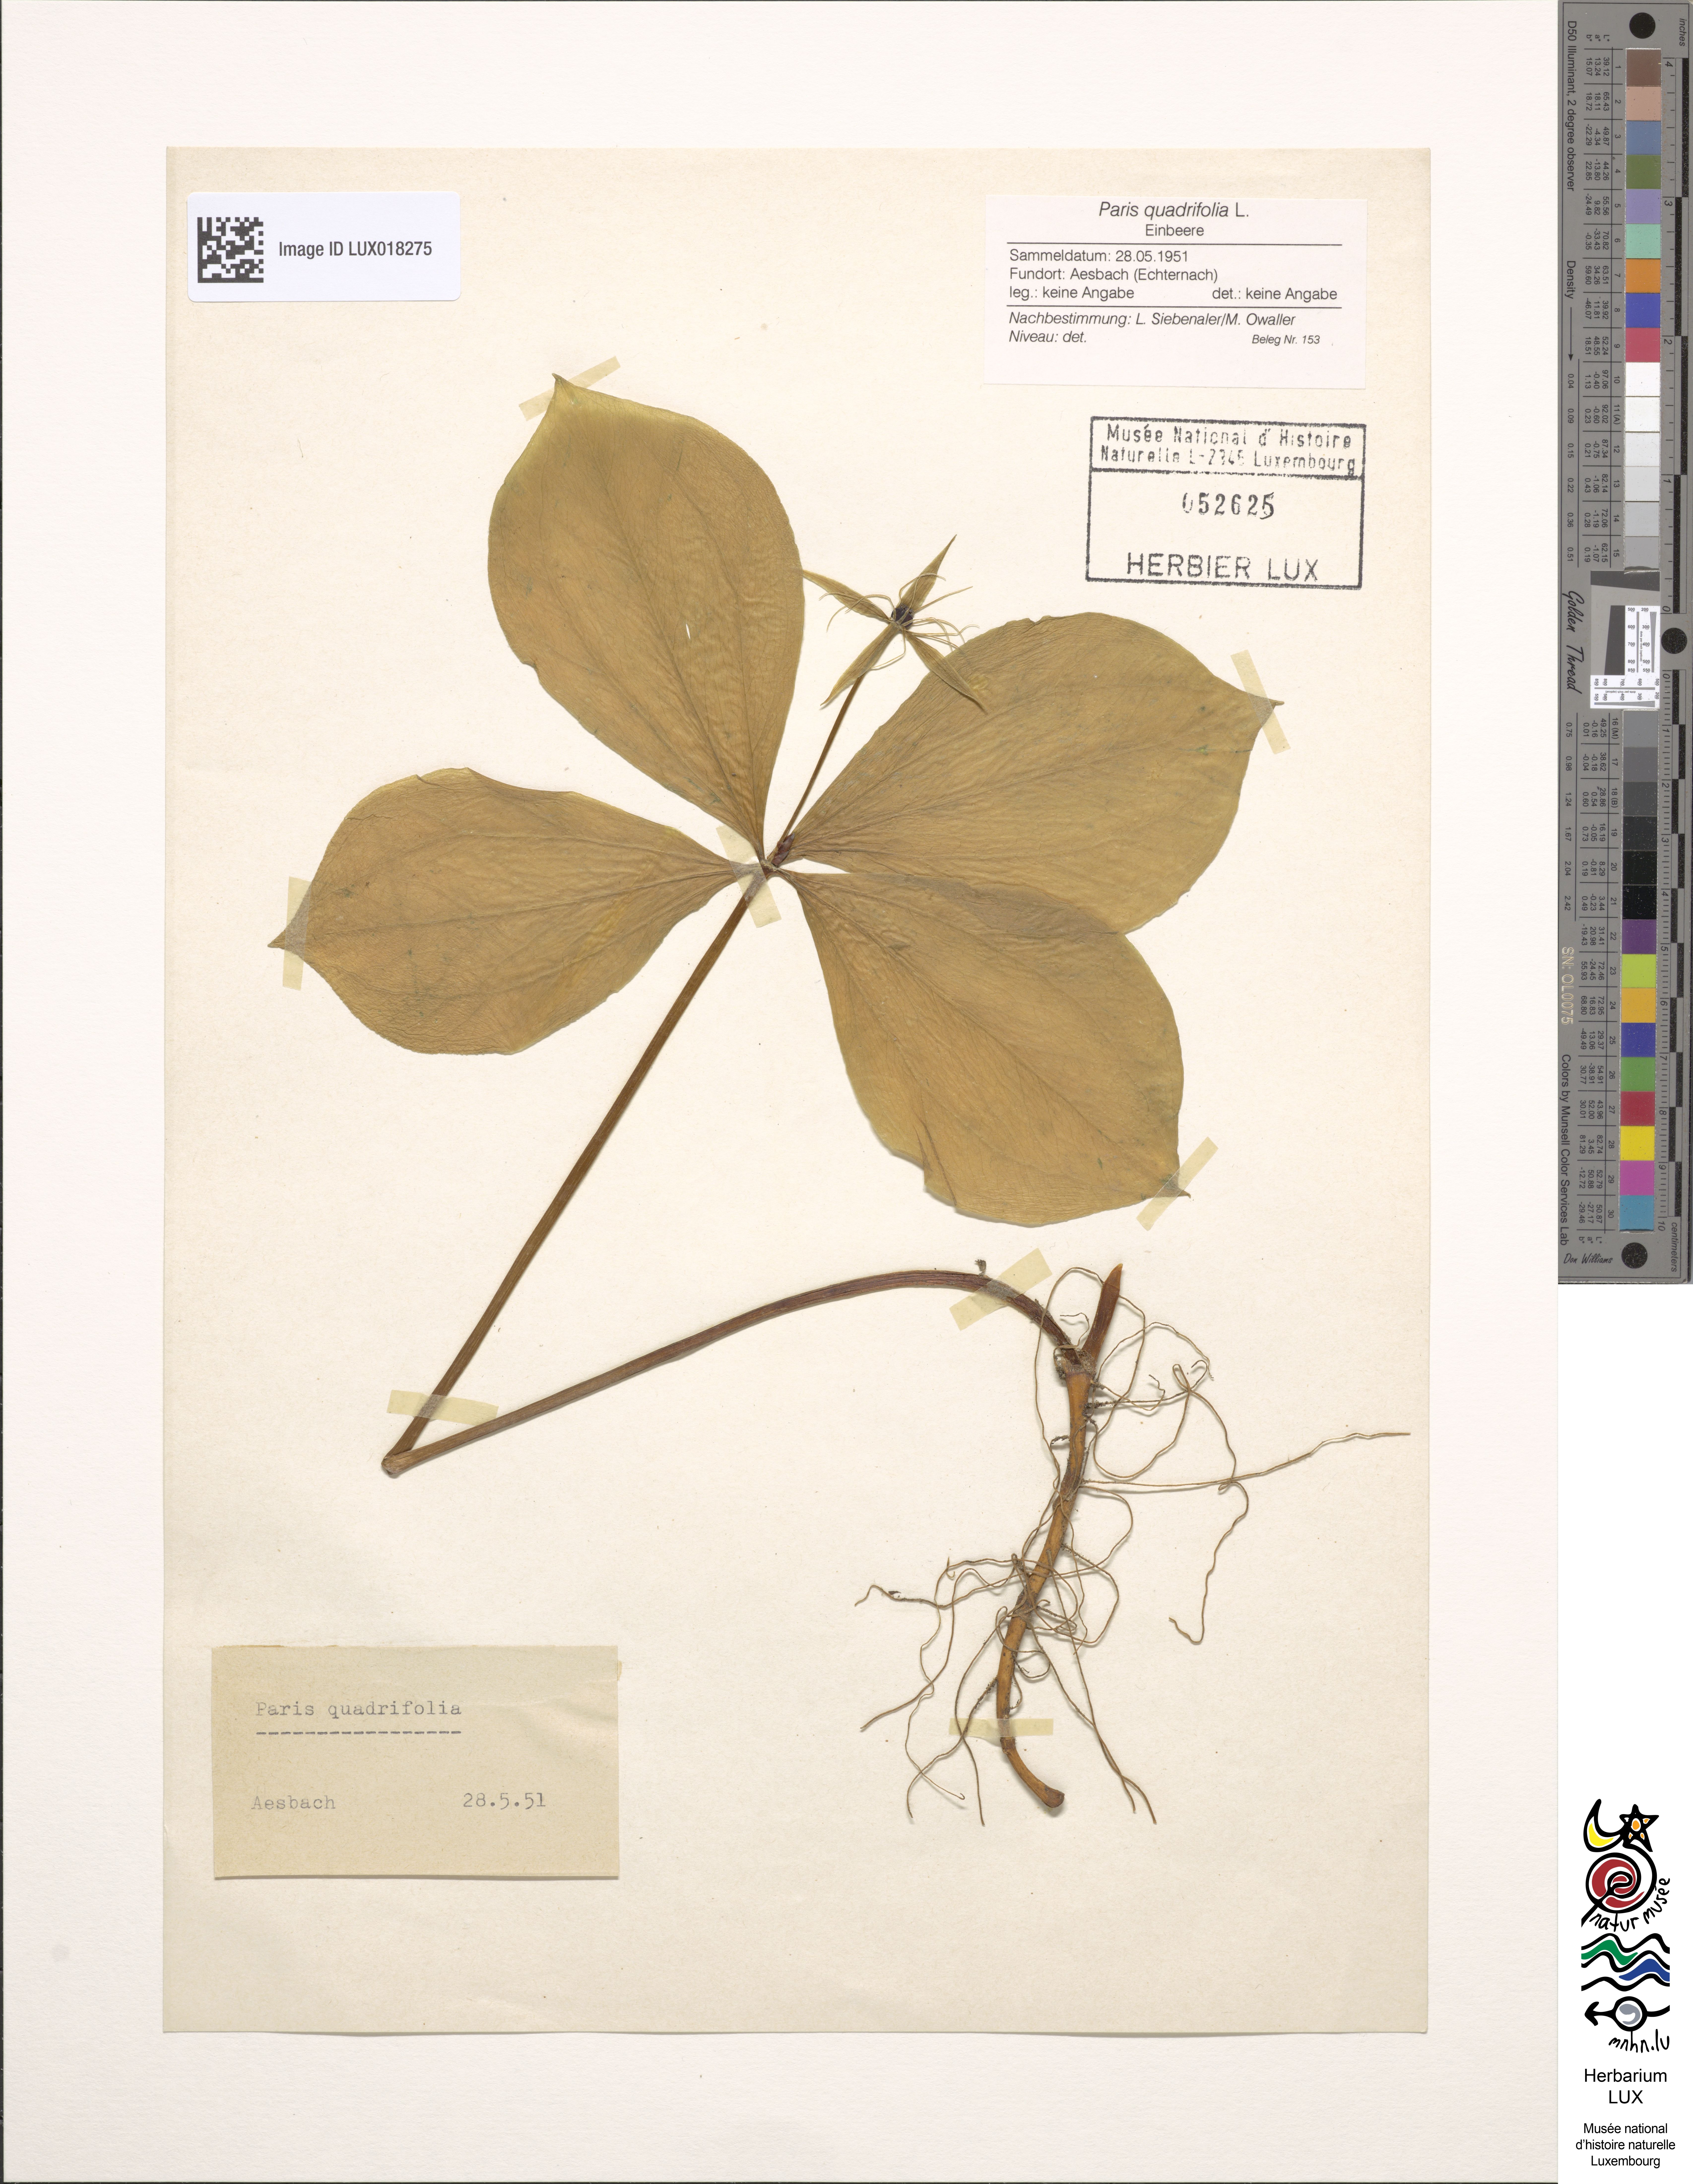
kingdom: Plantae
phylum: Tracheophyta
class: Liliopsida
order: Liliales
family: Melanthiaceae
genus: Paris
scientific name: Paris quadrifolia
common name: Herb-paris
